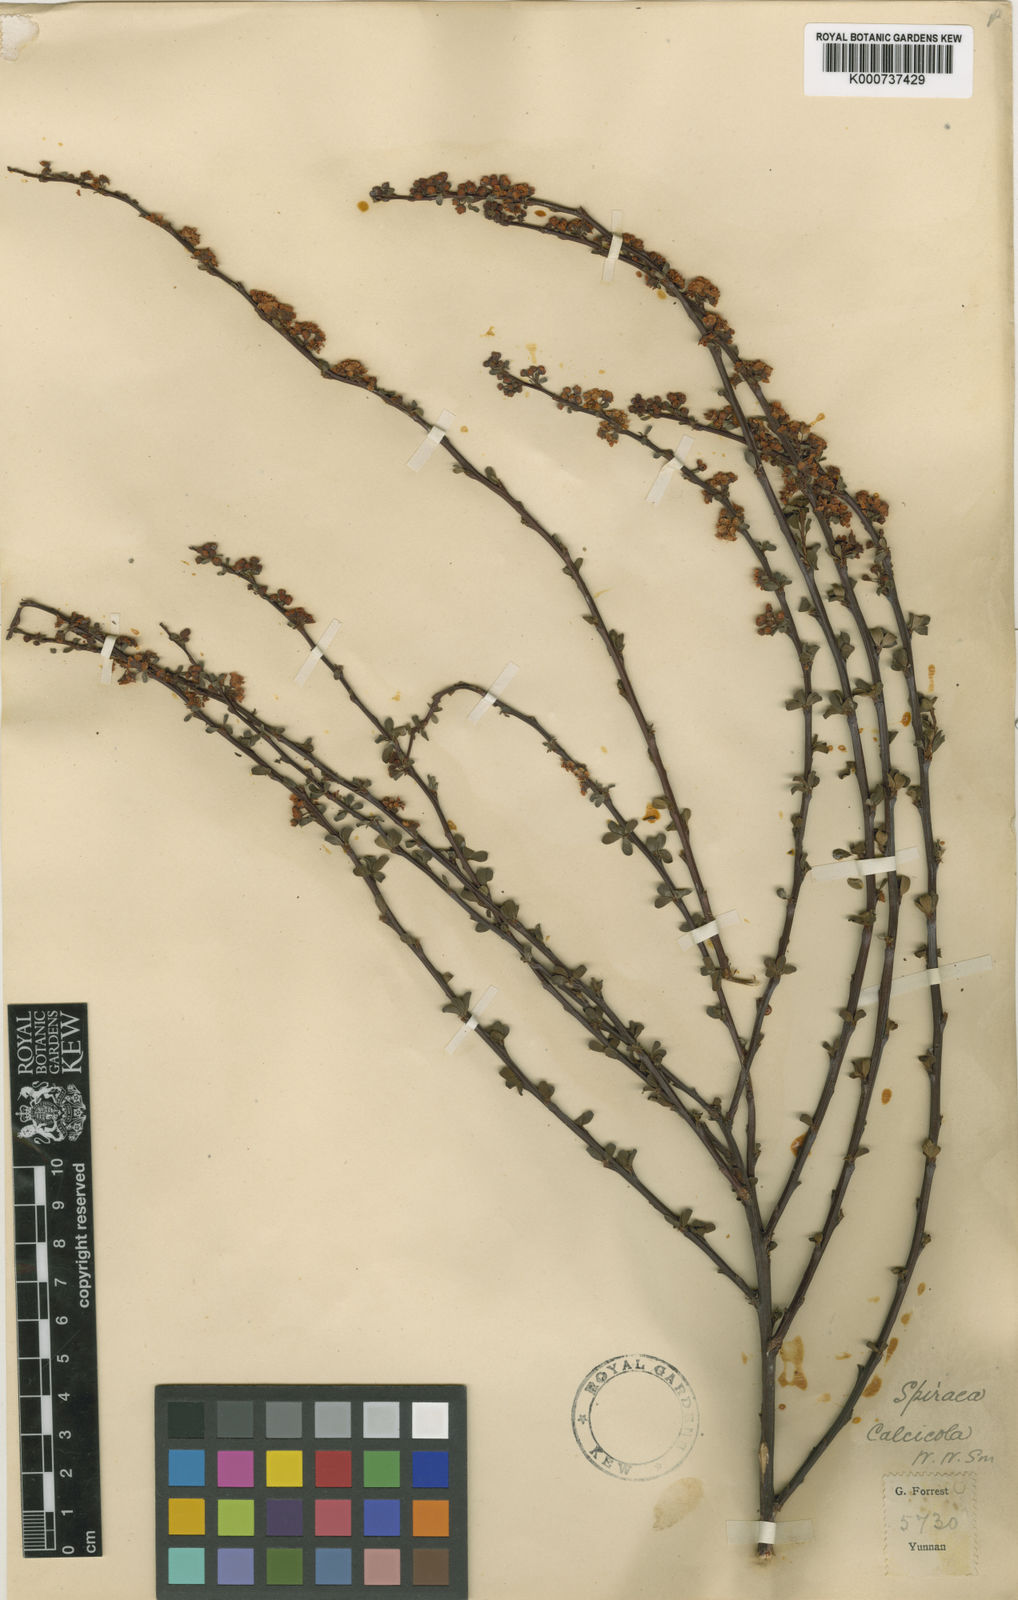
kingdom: Plantae
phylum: Tracheophyta
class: Magnoliopsida
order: Rosales
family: Rosaceae
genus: Spiraea
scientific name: Spiraea calcicola
